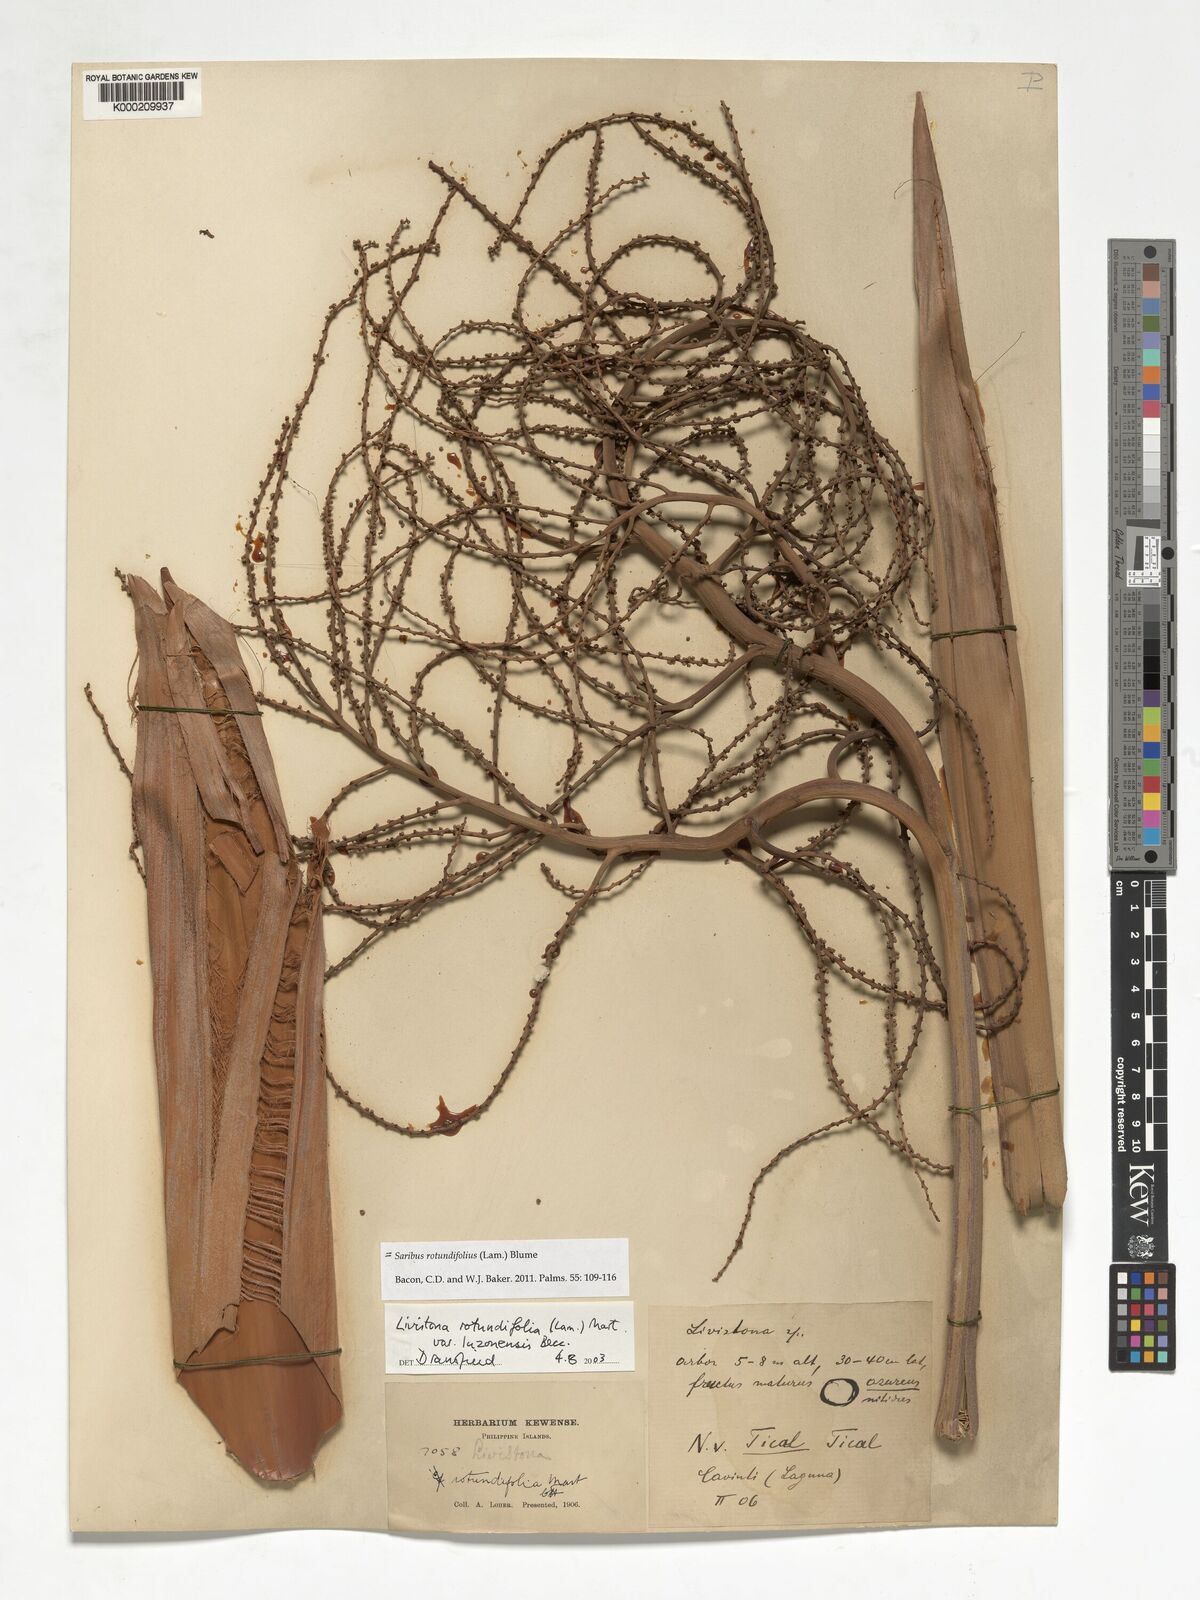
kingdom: Plantae
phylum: Tracheophyta
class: Liliopsida
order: Arecales
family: Arecaceae
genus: Saribus
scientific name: Saribus rotundifolius
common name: Palm
